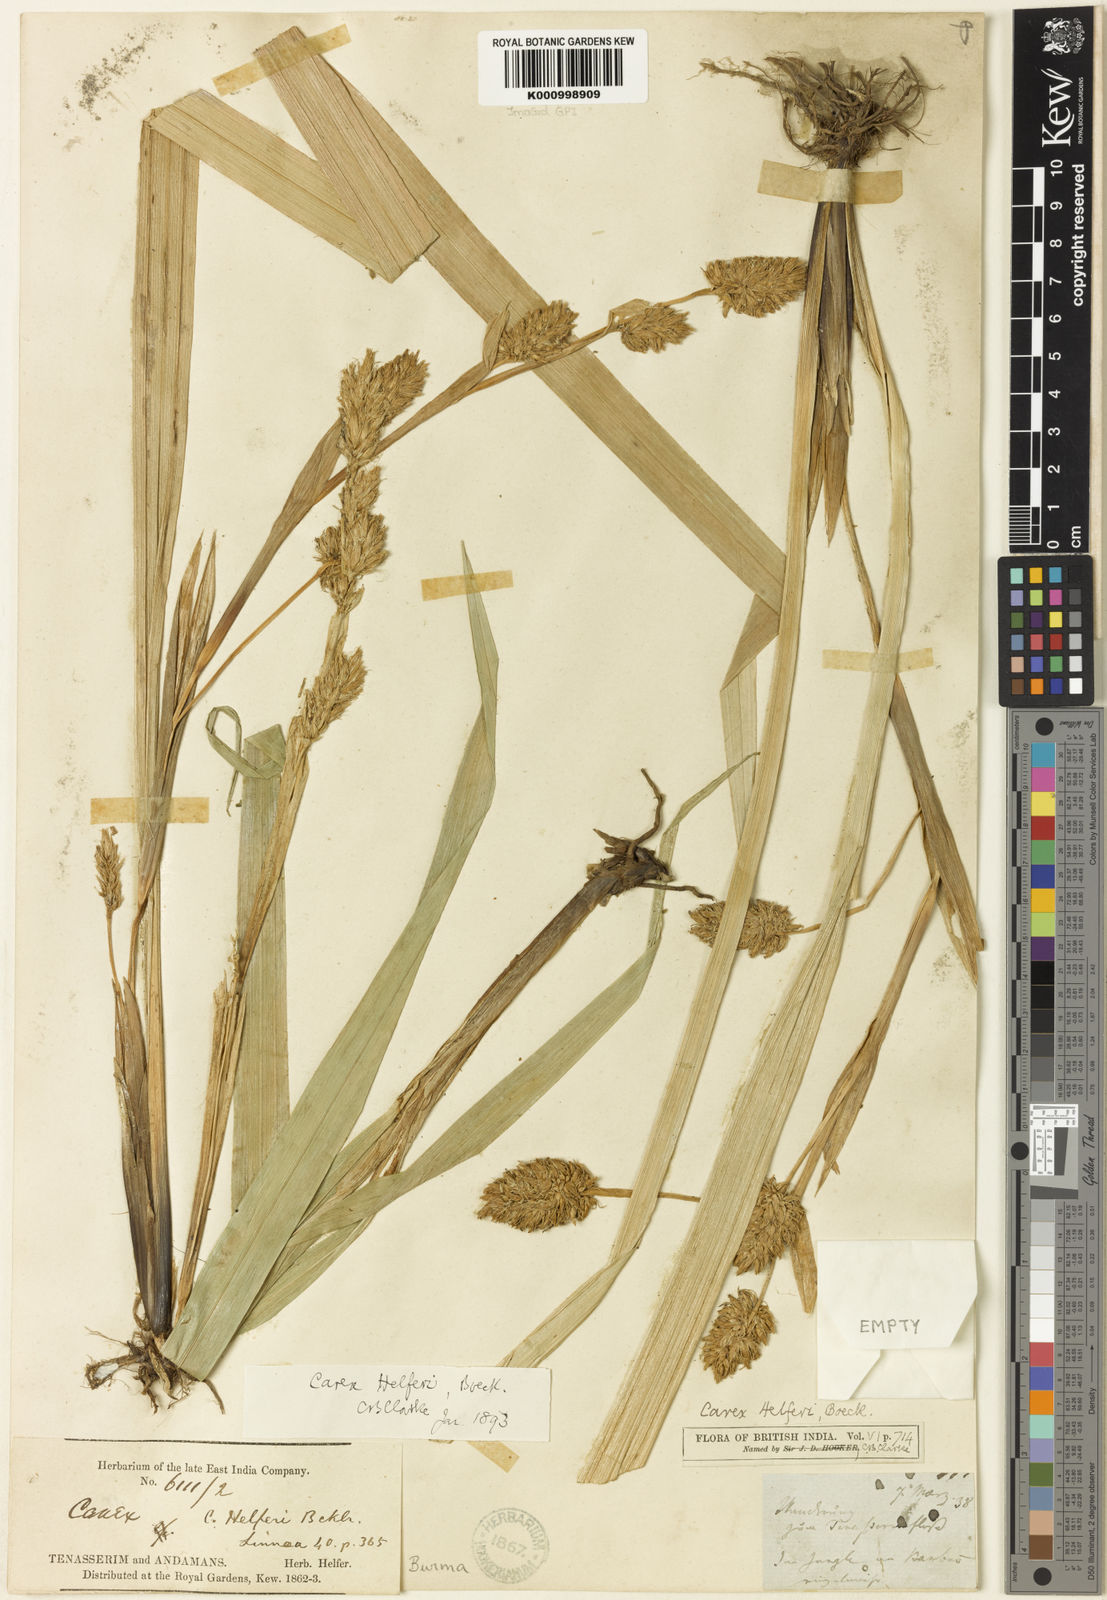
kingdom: Plantae
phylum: Tracheophyta
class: Liliopsida
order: Poales
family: Cyperaceae
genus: Carex
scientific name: Carex helferi
